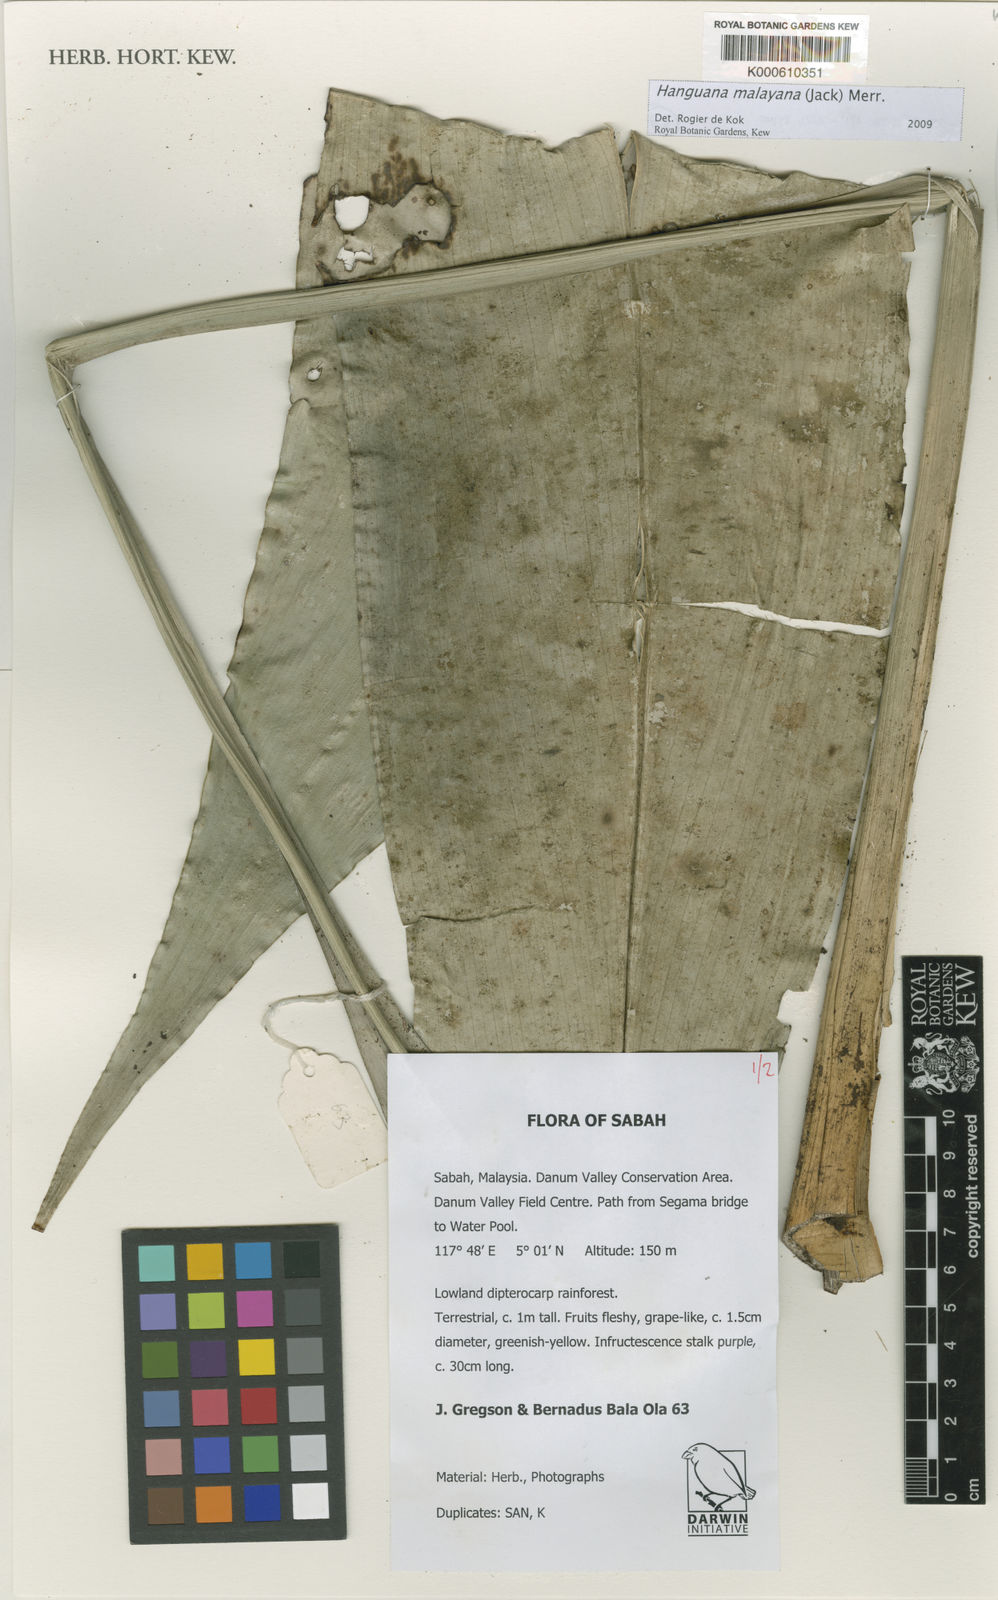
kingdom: Plantae
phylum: Tracheophyta
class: Liliopsida
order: Commelinales
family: Hanguanaceae
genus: Hanguana
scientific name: Hanguana malayana
